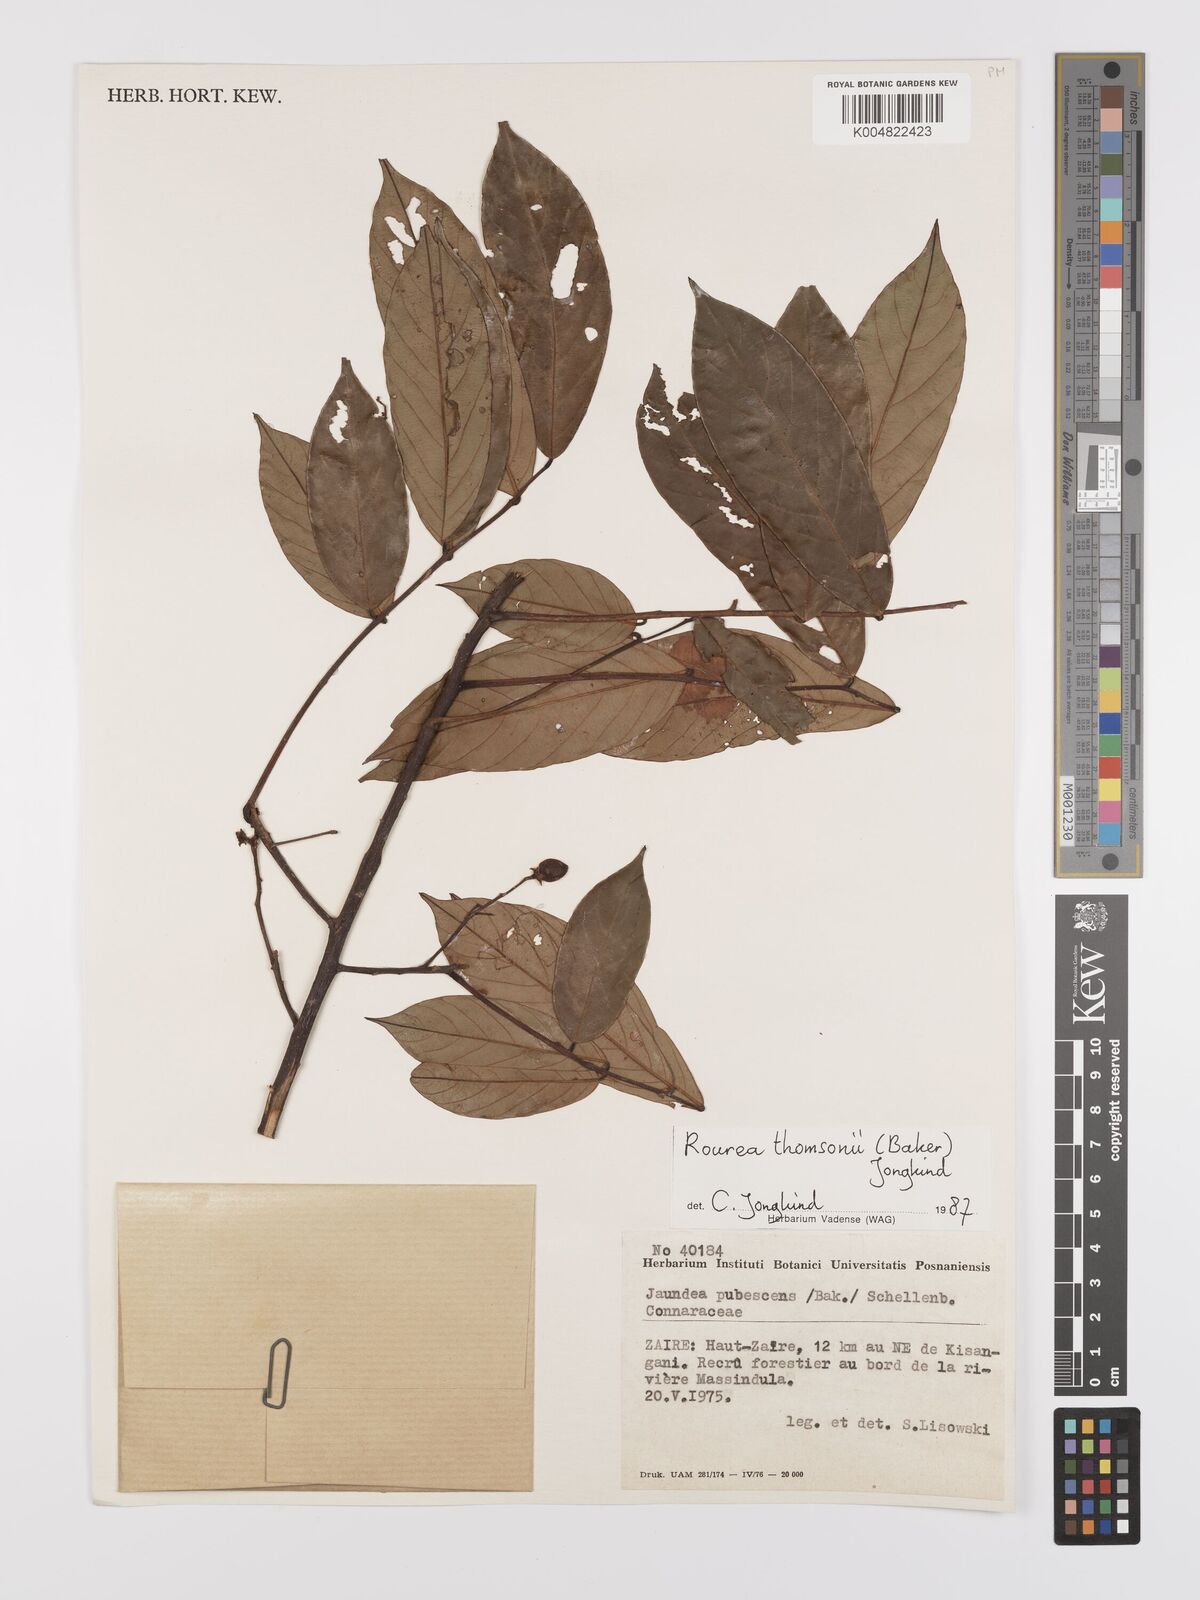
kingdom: Plantae
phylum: Tracheophyta
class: Magnoliopsida
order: Oxalidales
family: Connaraceae
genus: Rourea
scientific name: Rourea pubescens
